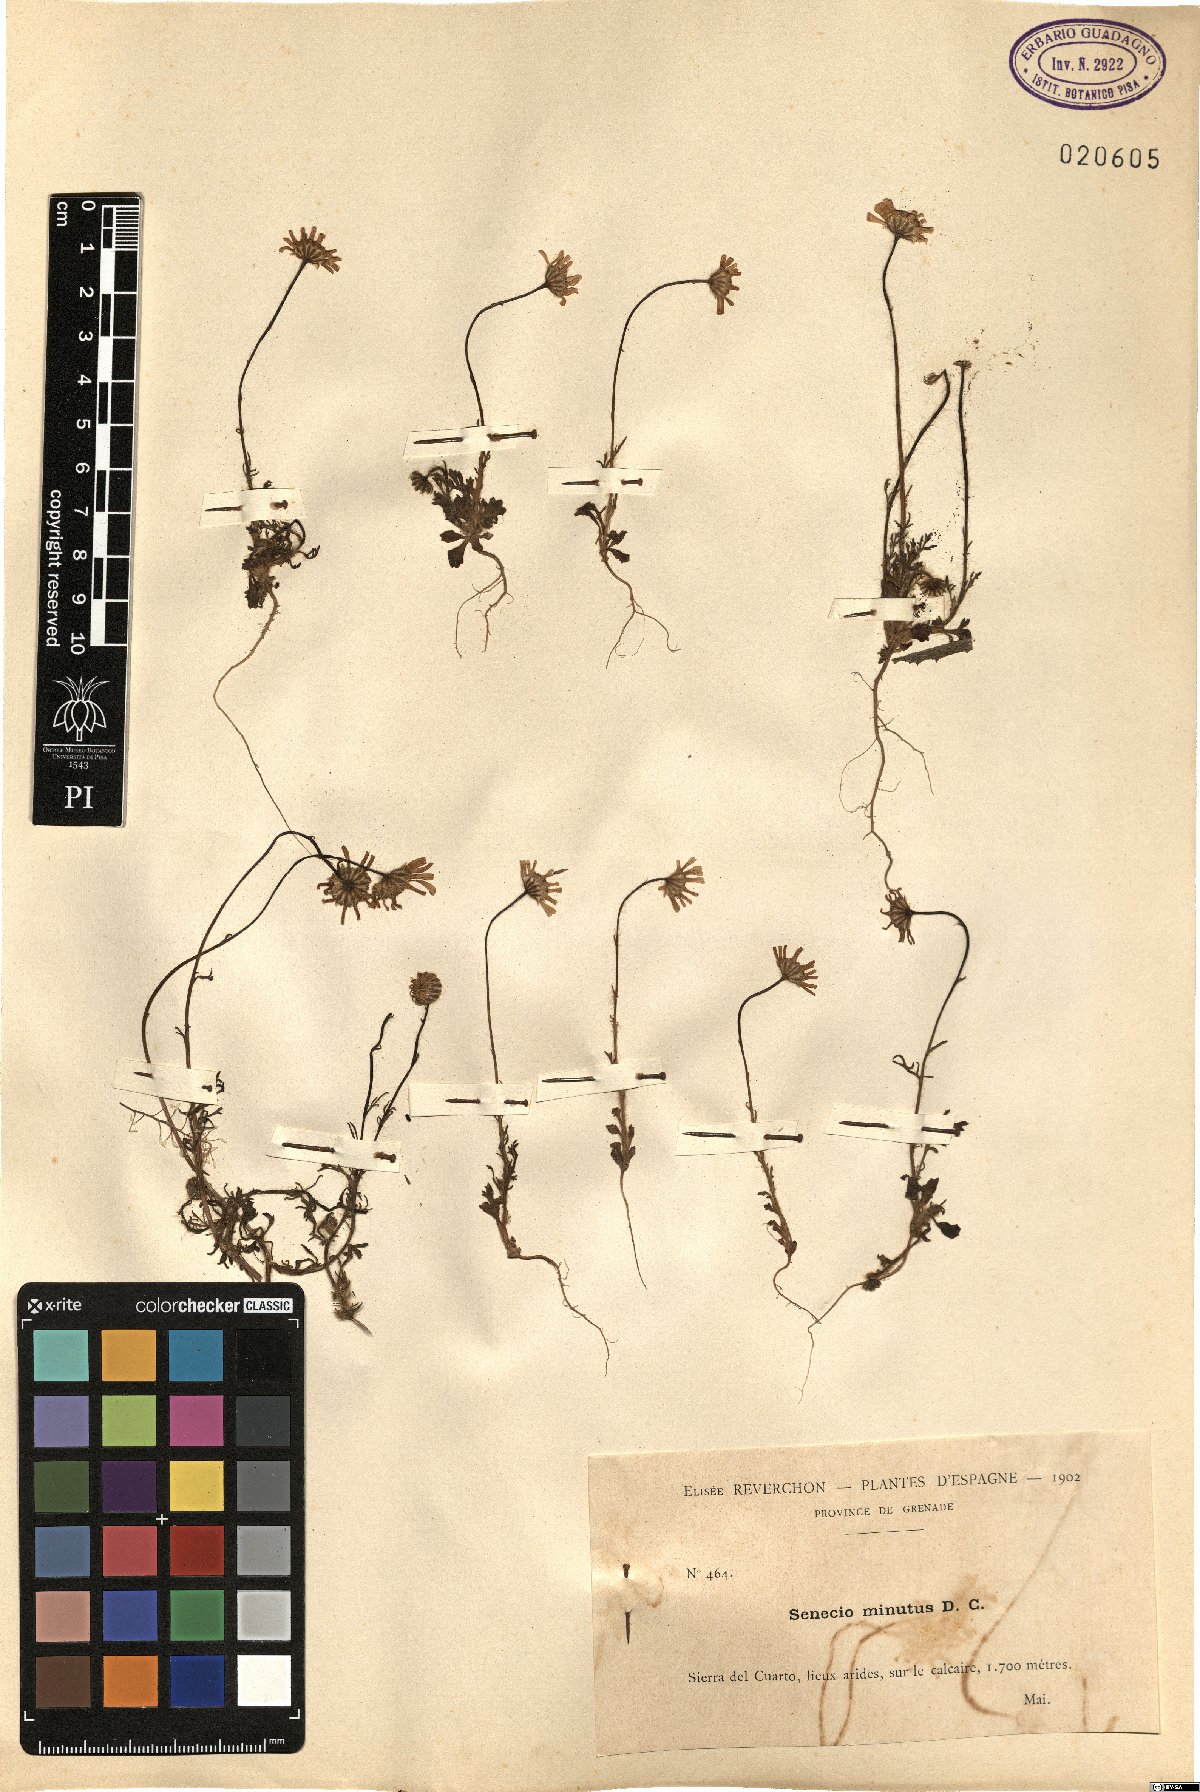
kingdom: Plantae
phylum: Tracheophyta
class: Magnoliopsida
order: Asterales
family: Asteraceae
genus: Jacobaea
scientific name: Jacobaea minuta
